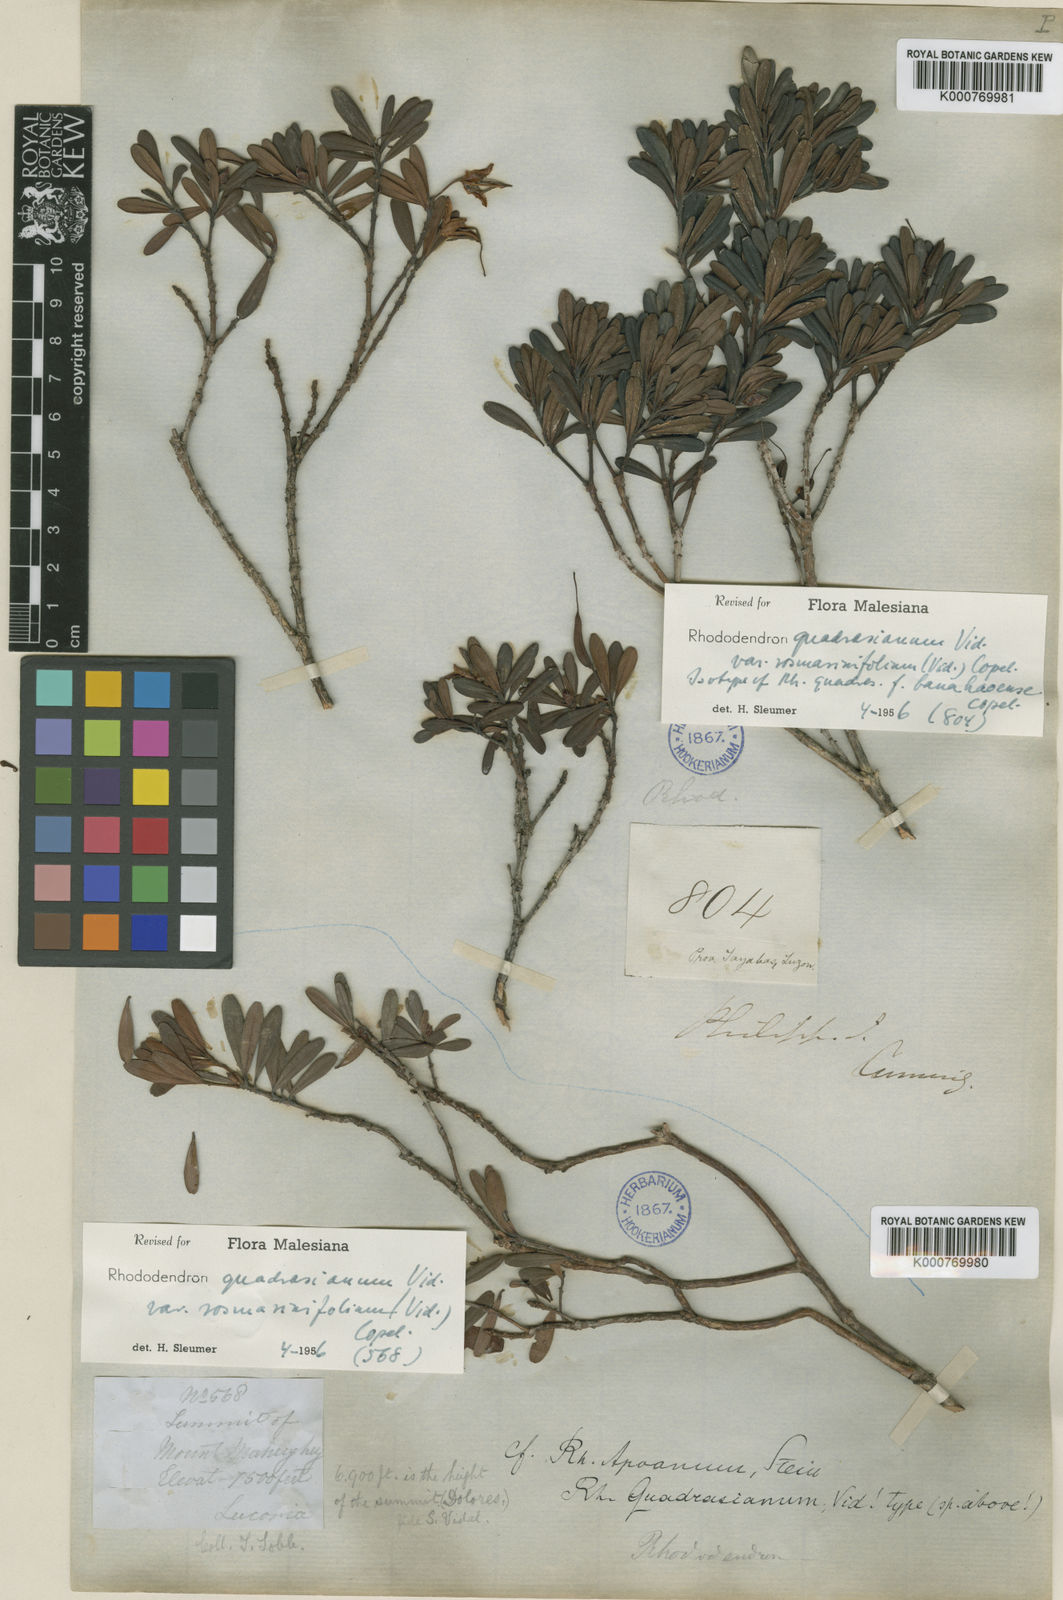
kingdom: Plantae
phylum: Tracheophyta
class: Magnoliopsida
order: Ericales
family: Ericaceae
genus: Rhododendron
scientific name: Rhododendron quadrasianum
